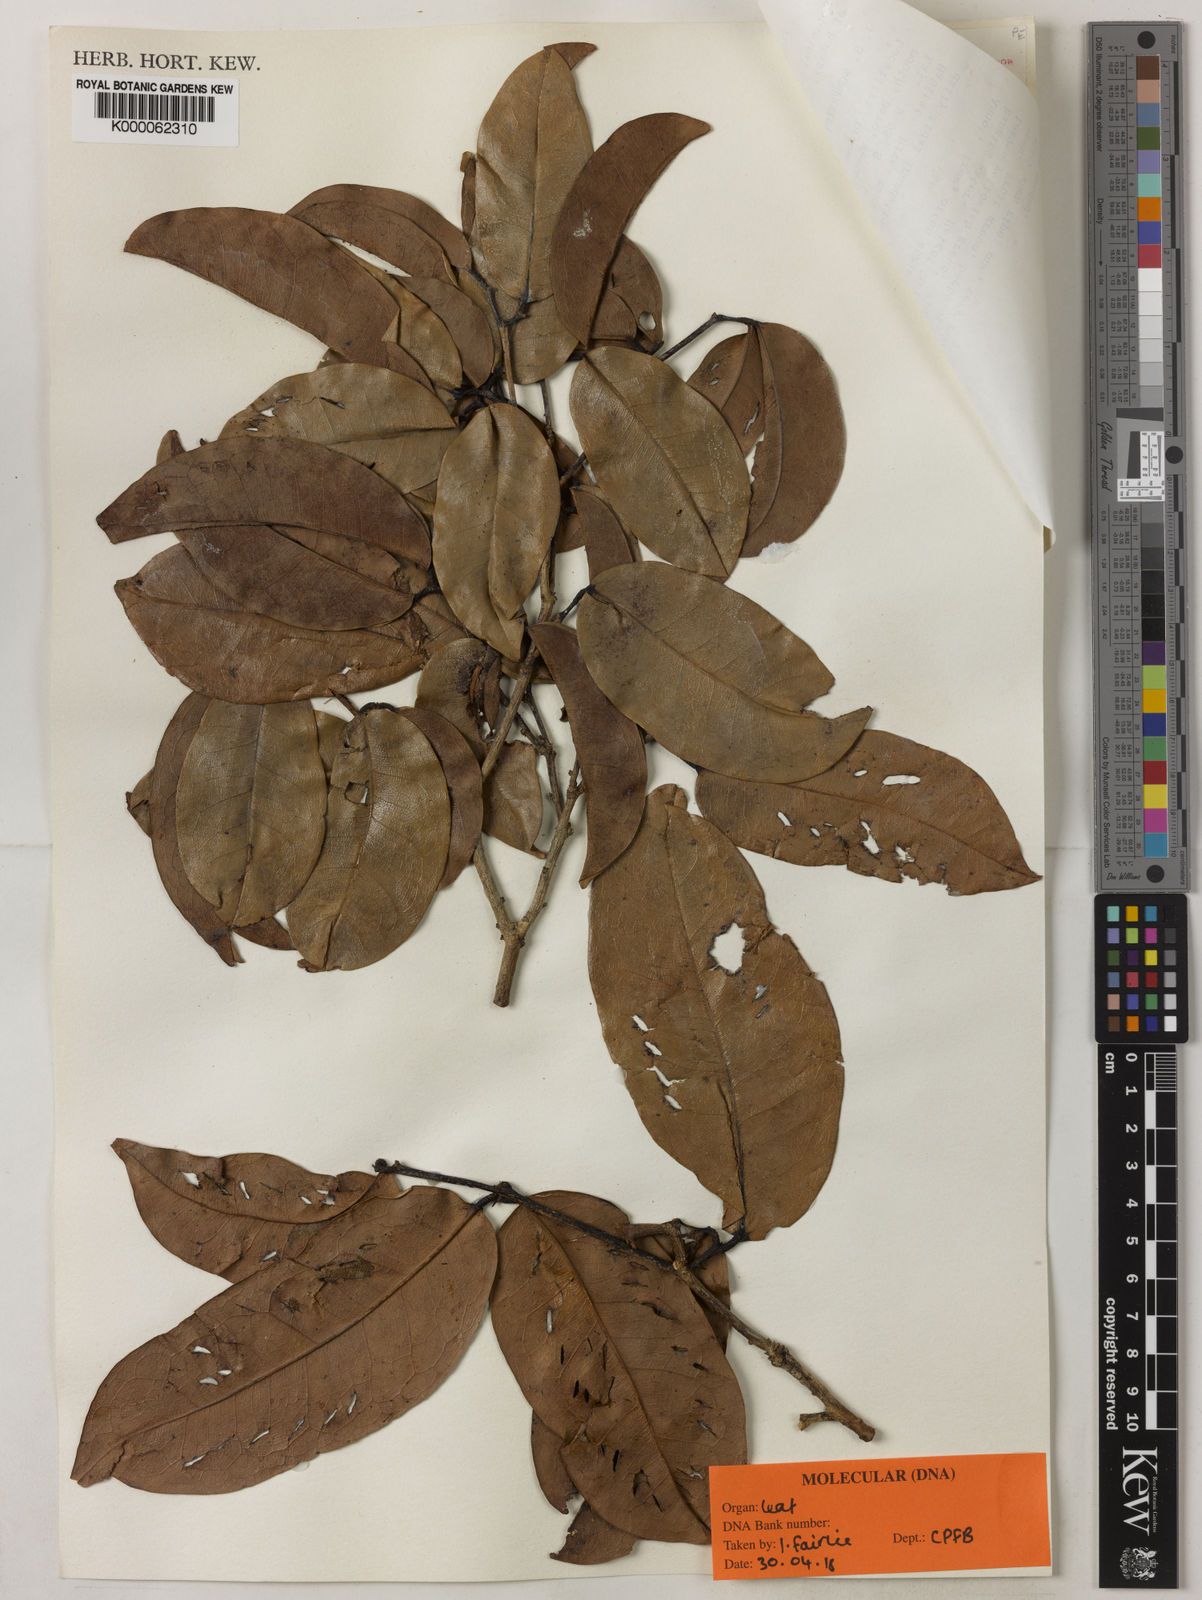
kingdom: Plantae
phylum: Tracheophyta
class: Magnoliopsida
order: Fabales
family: Fabaceae
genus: Crudia
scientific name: Crudia papuana
